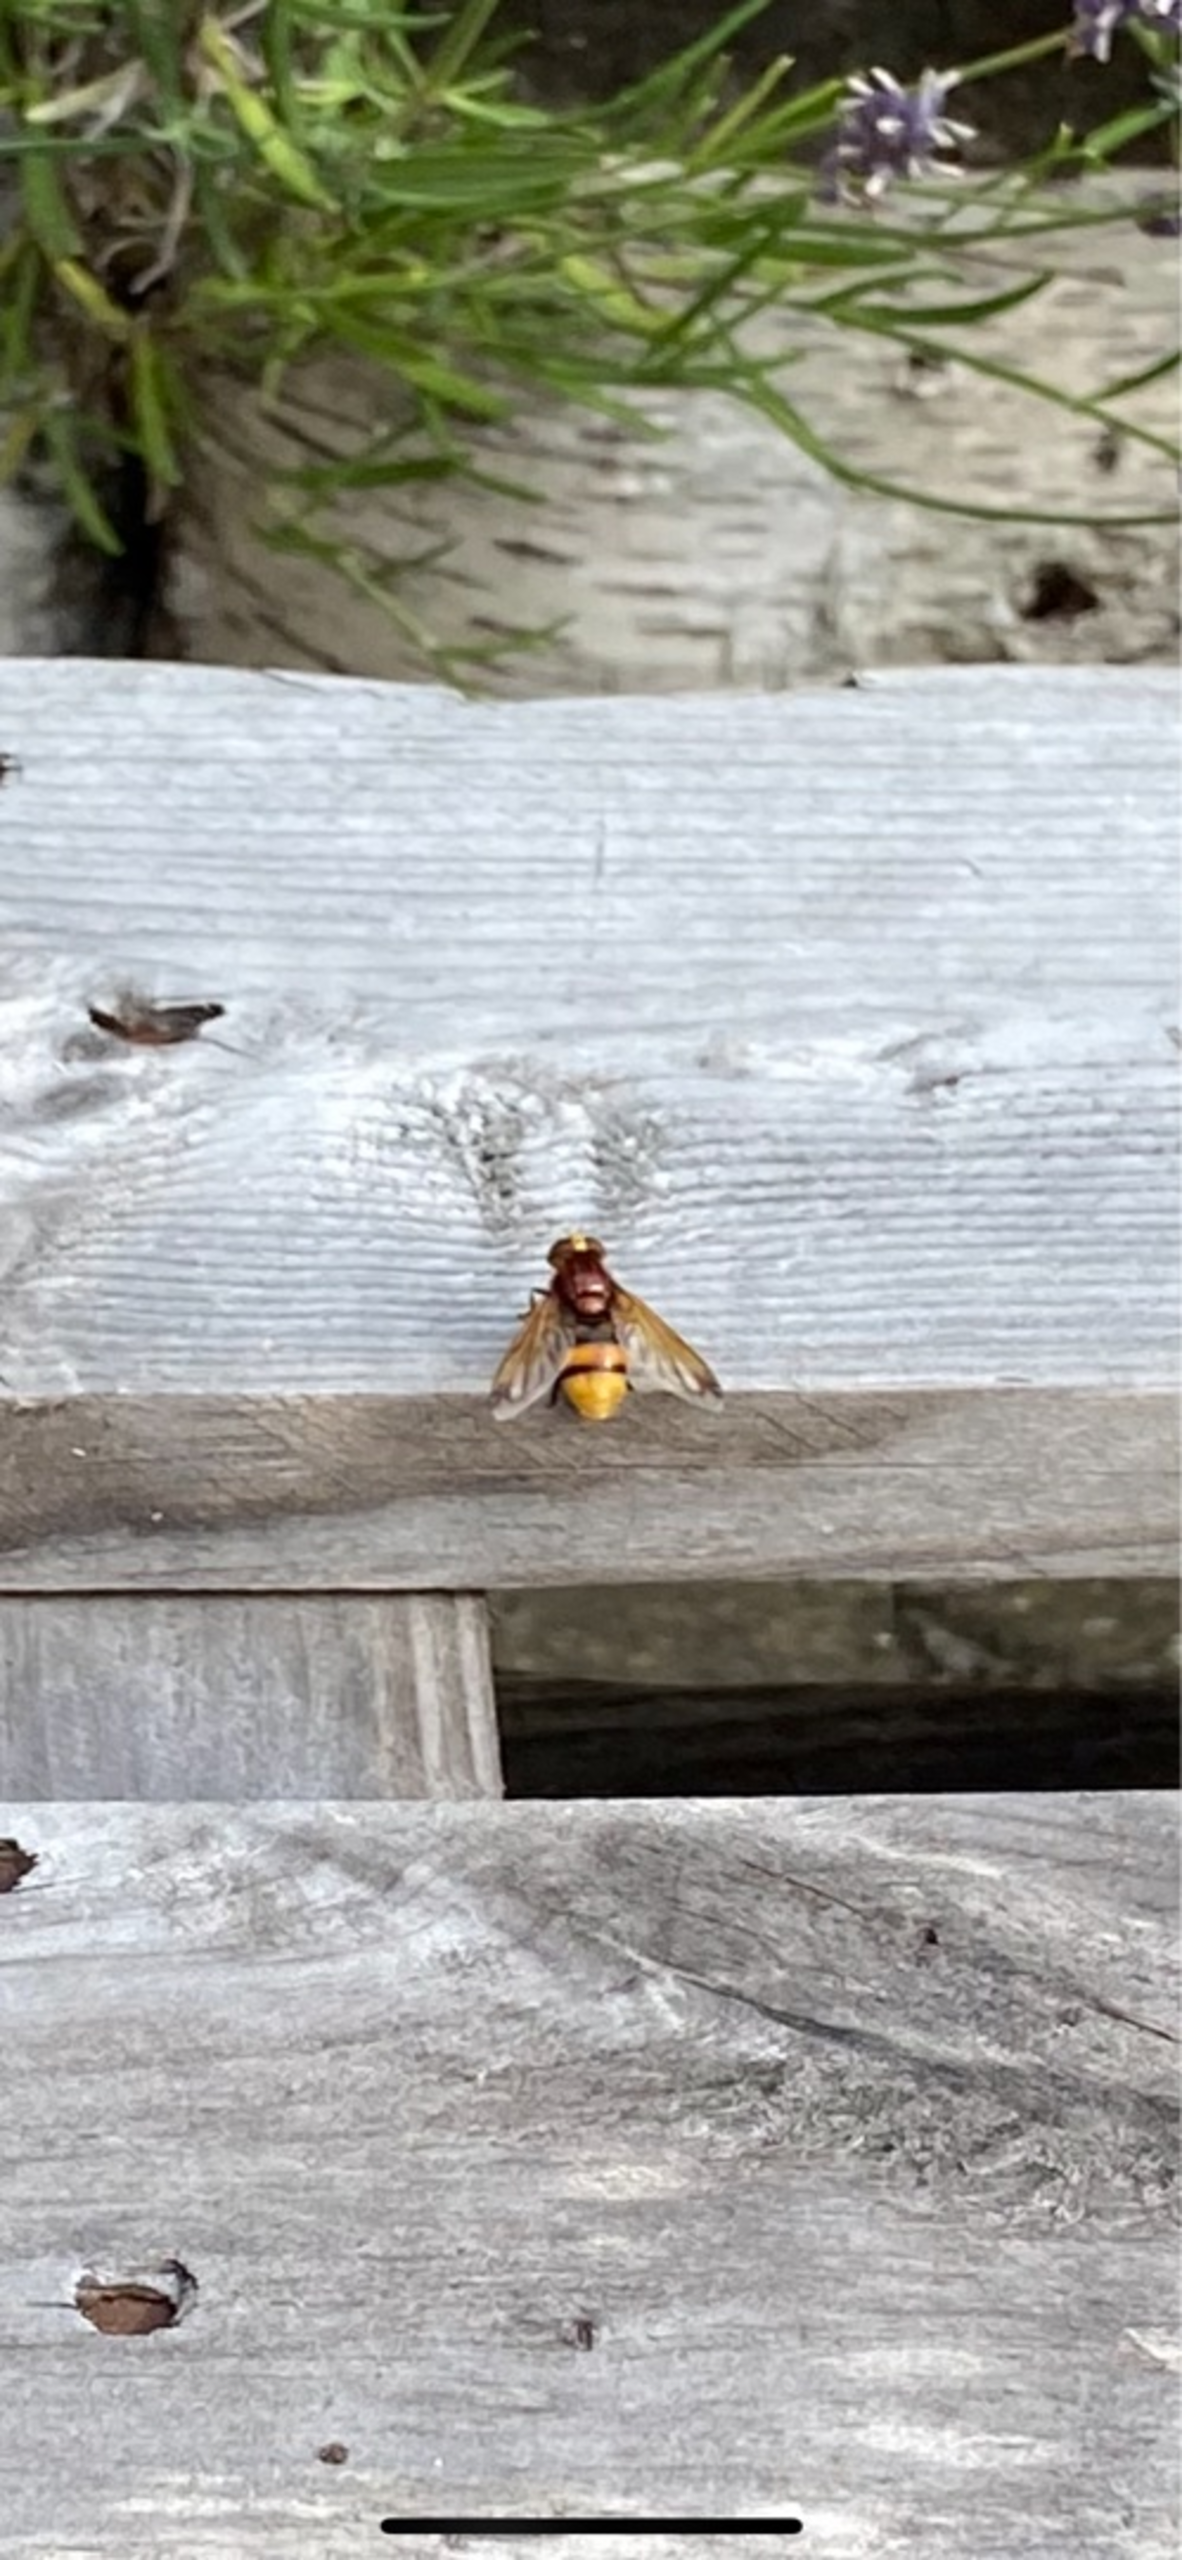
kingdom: Animalia
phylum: Arthropoda
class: Insecta
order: Diptera
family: Syrphidae
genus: Volucella
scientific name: Volucella zonaria
